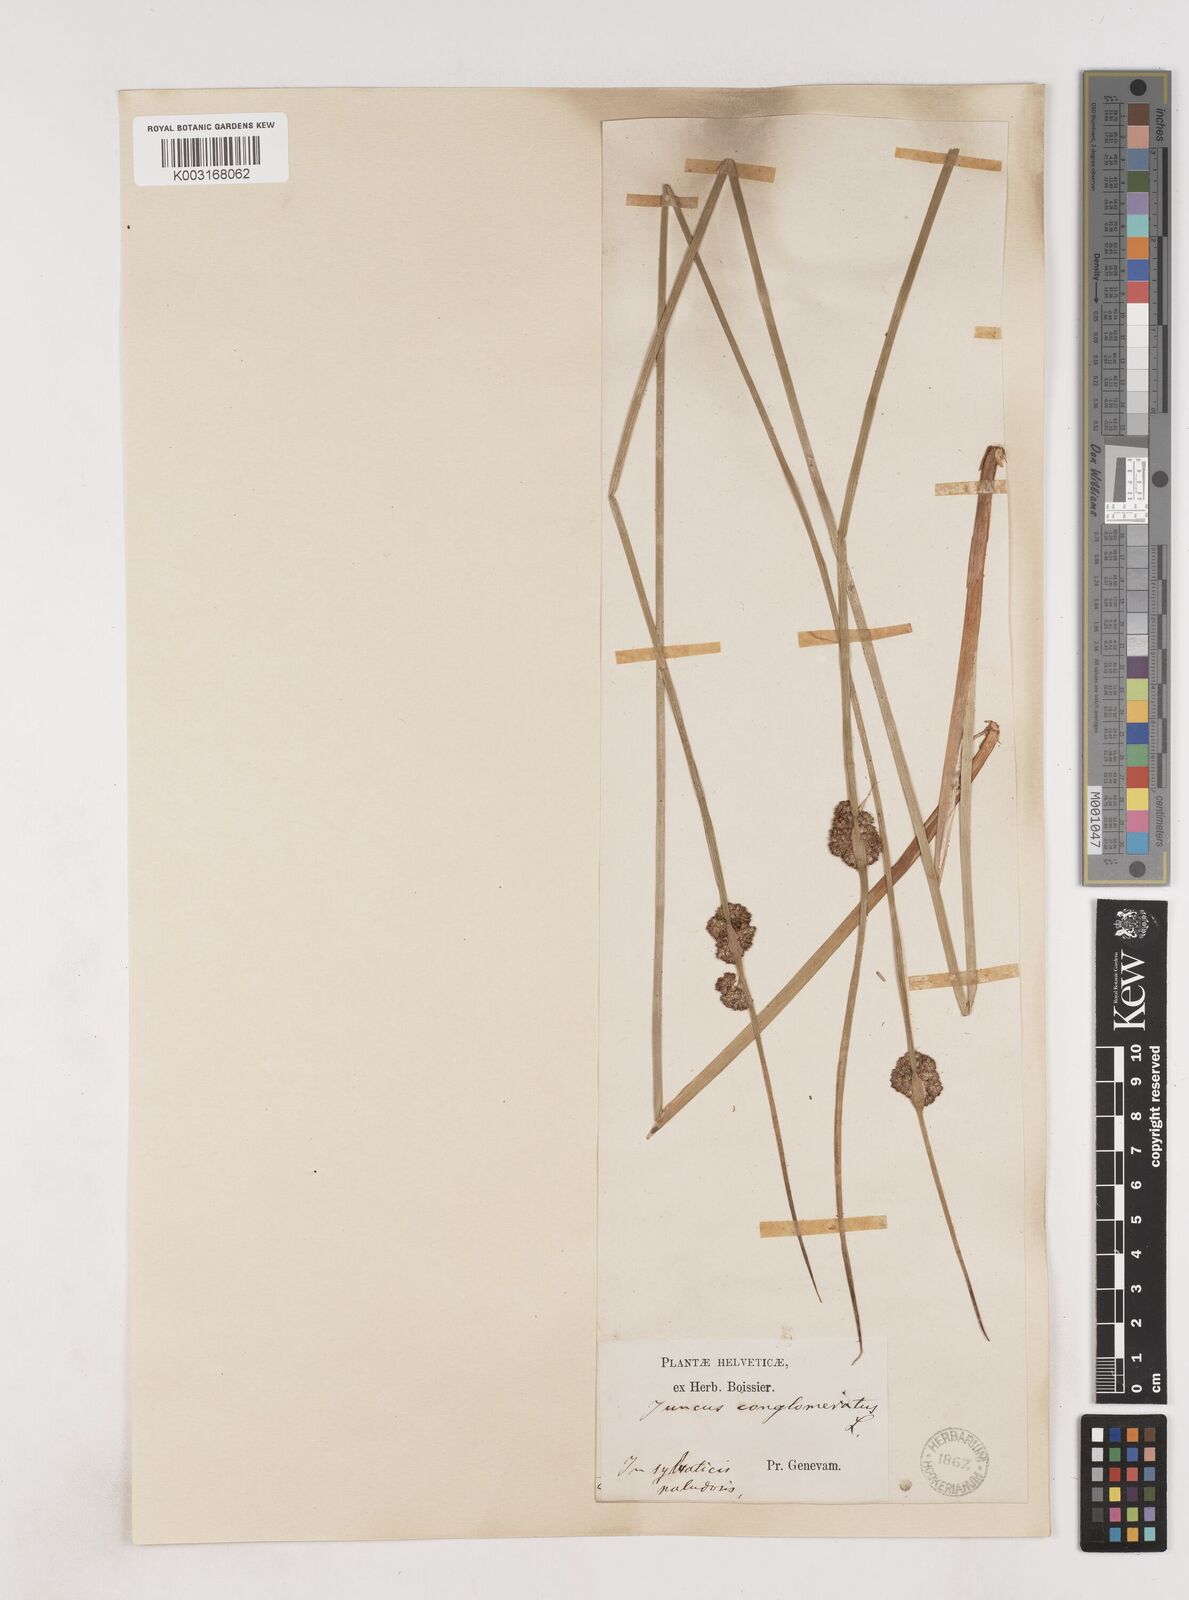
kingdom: Plantae
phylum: Tracheophyta
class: Liliopsida
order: Poales
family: Juncaceae
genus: Juncus
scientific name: Juncus conglomeratus
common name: Compact rush
